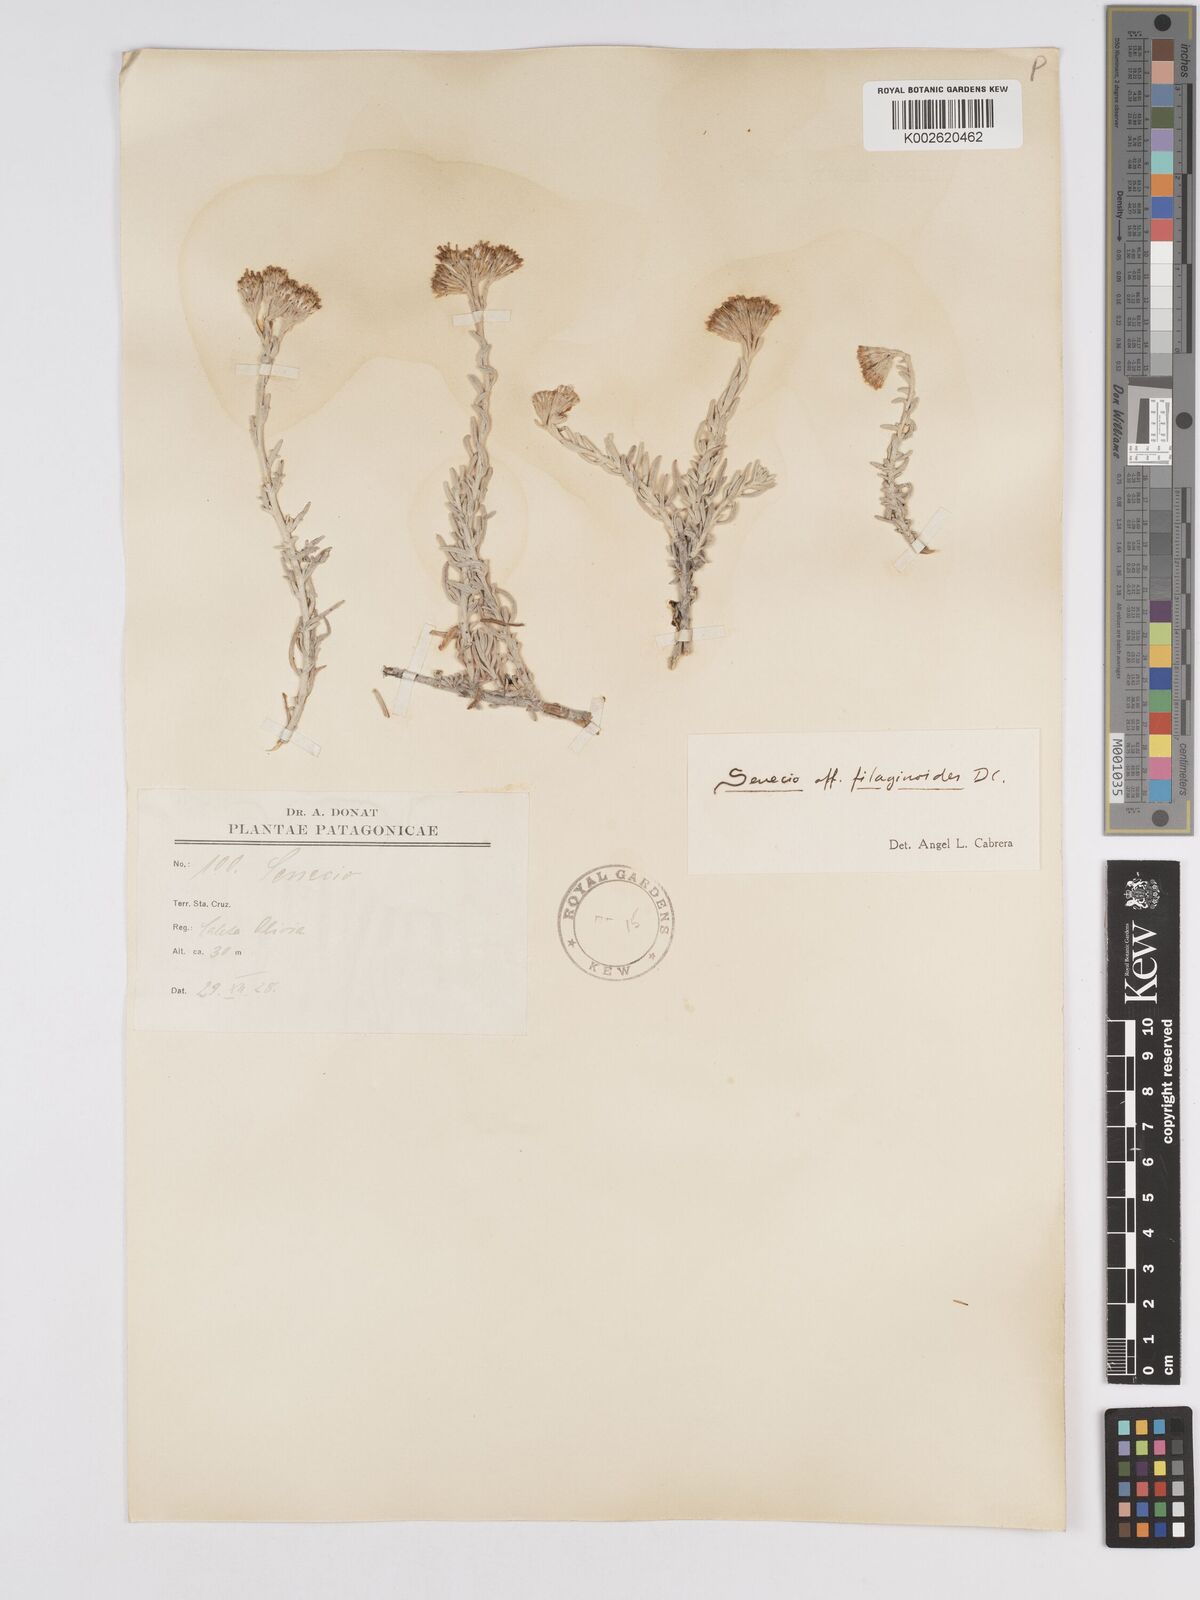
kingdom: Plantae
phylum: Tracheophyta
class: Magnoliopsida
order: Asterales
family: Asteraceae
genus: Senecio
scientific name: Senecio filaginoides
